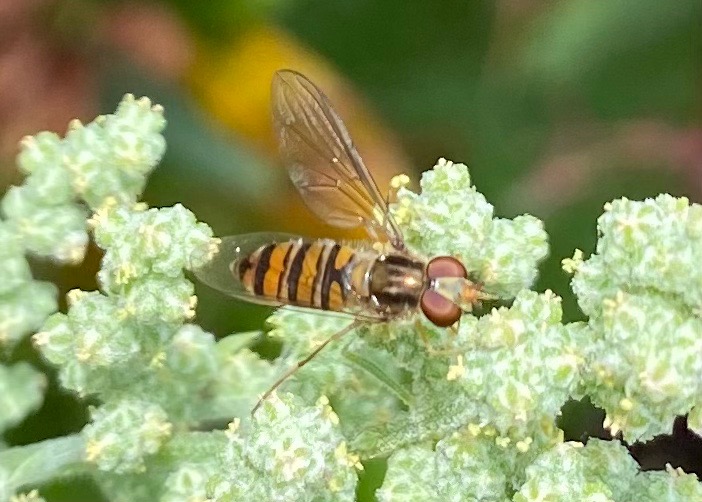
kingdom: Animalia
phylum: Arthropoda
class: Insecta
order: Diptera
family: Syrphidae
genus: Episyrphus
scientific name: Episyrphus balteatus
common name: Dobbeltbåndet svirreflue
